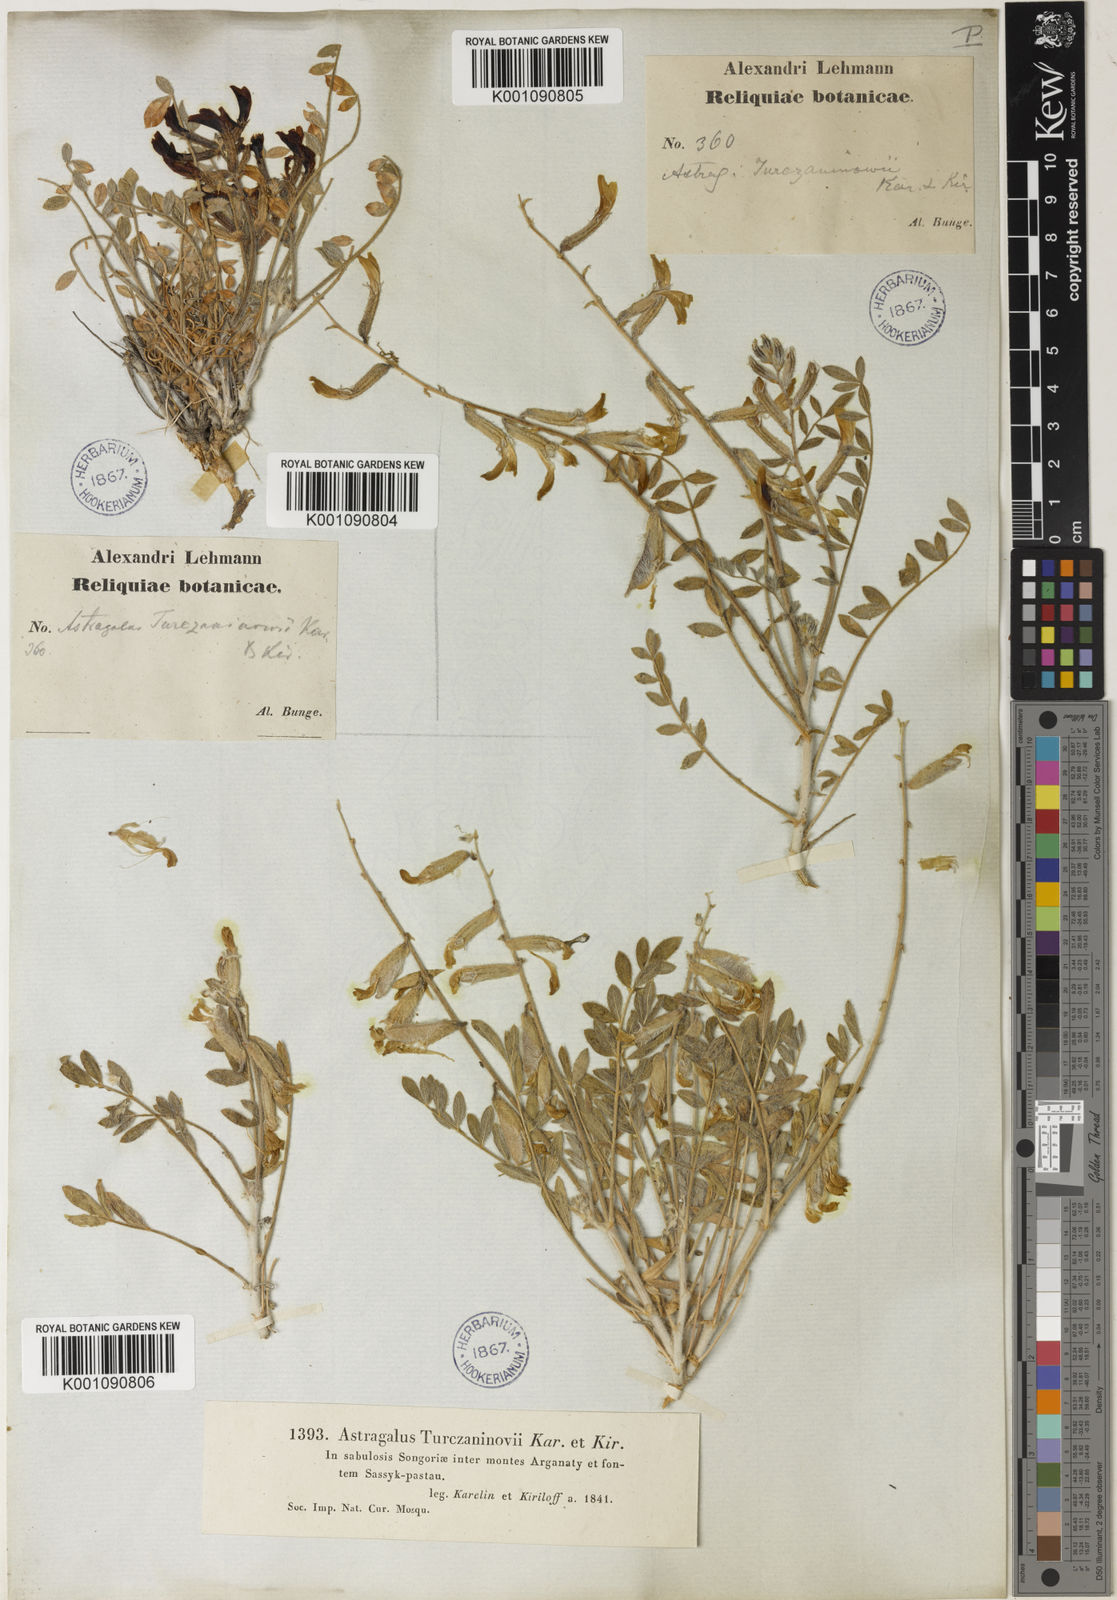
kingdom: Plantae
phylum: Tracheophyta
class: Magnoliopsida
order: Fabales
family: Fabaceae
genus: Astragalus
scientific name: Astragalus
